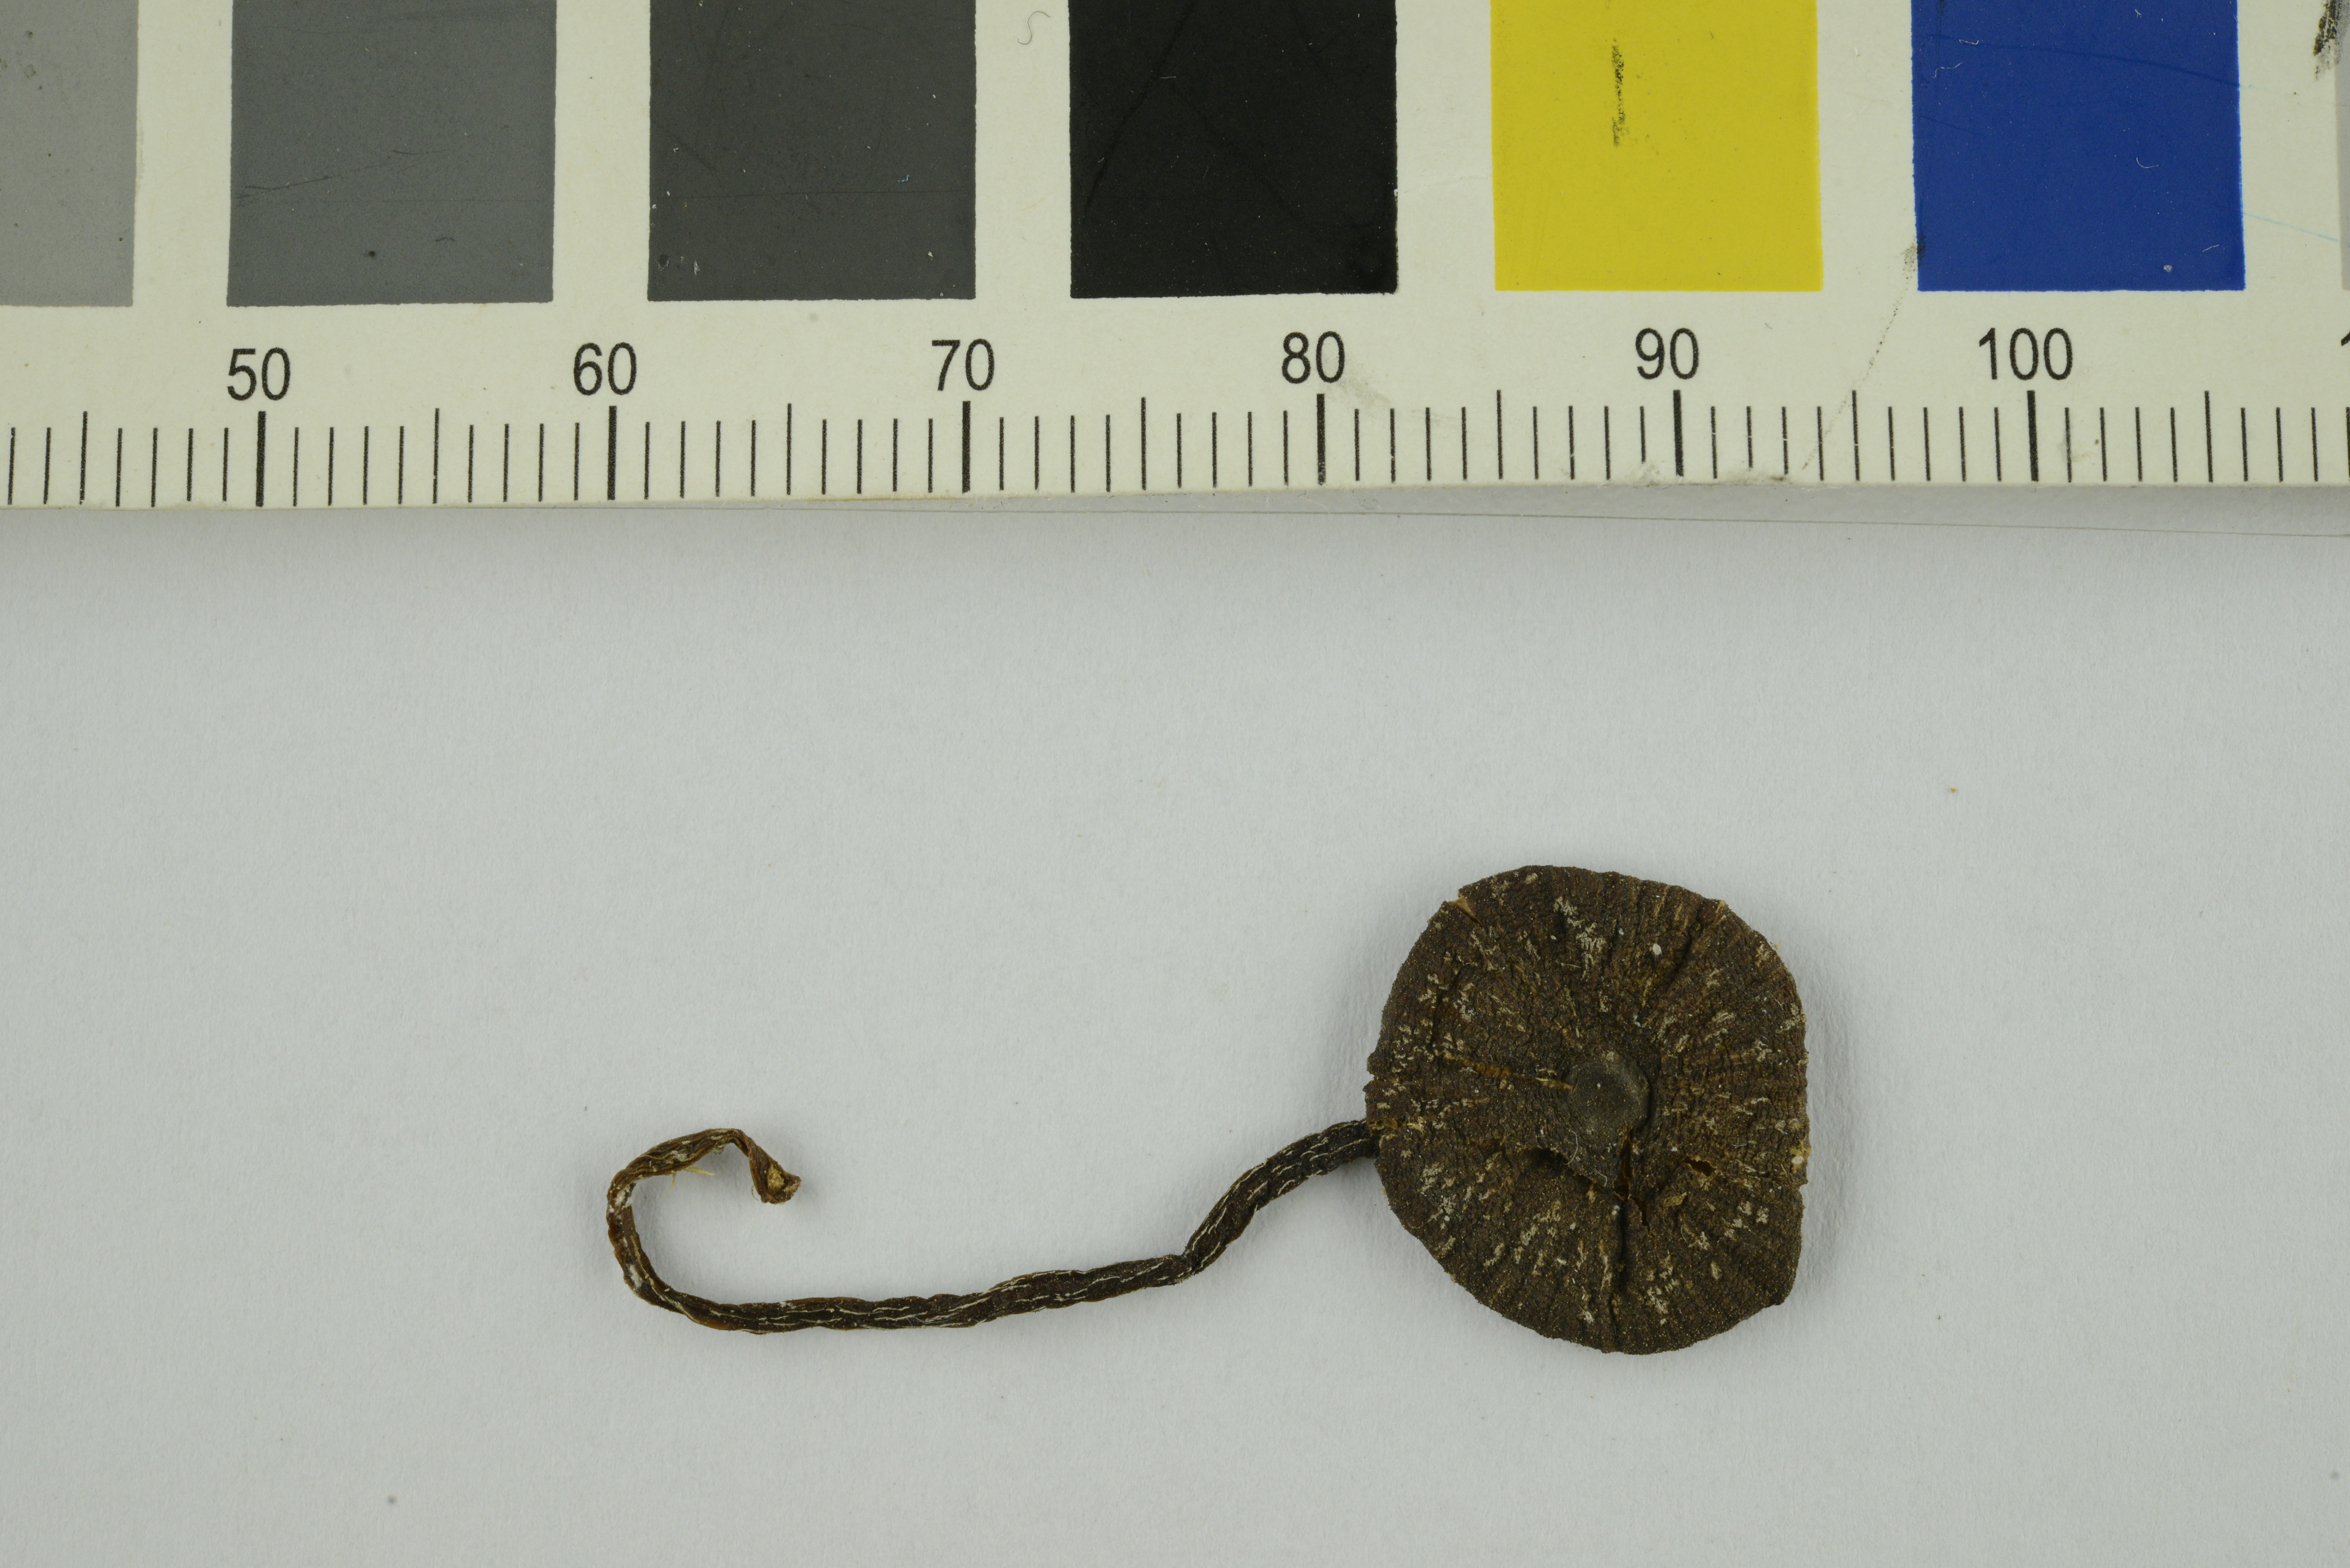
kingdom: Fungi
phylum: Basidiomycota
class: Agaricomycetes
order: Agaricales
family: Entolomataceae
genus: Entoloma
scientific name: Entoloma
